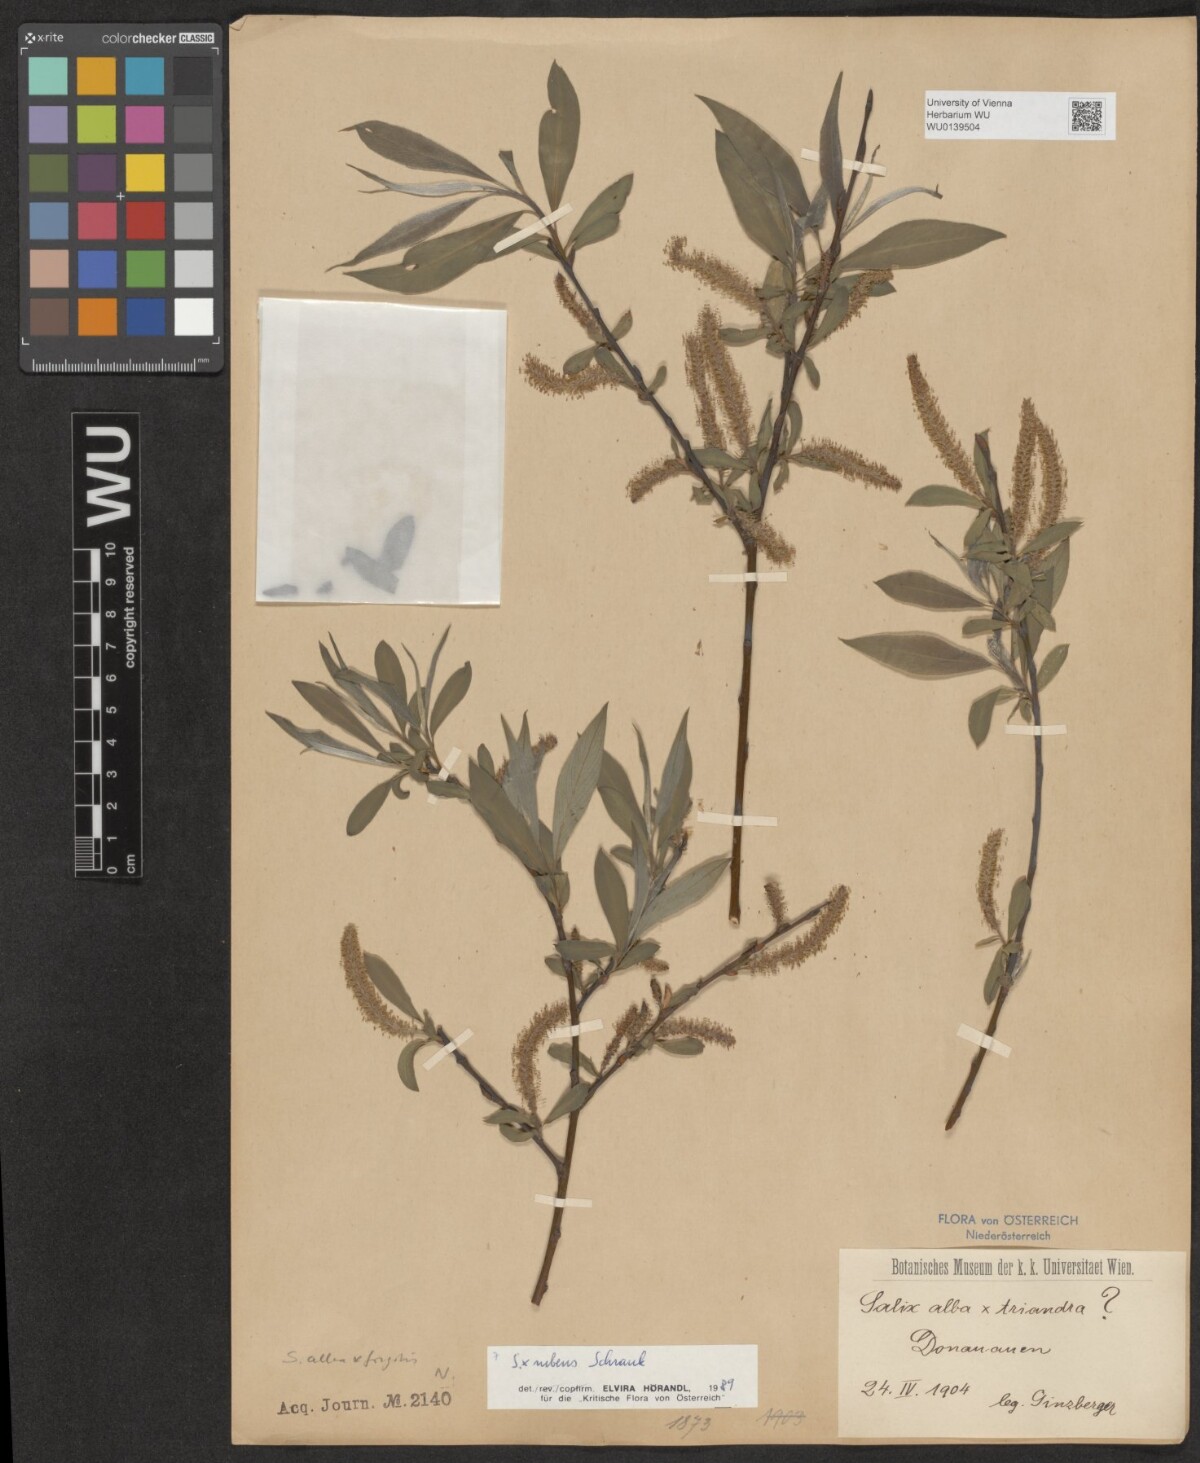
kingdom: Plantae
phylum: Tracheophyta
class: Magnoliopsida
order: Malpighiales
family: Salicaceae
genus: Salix
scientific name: Salix rubens
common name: Hybrid crack willow
